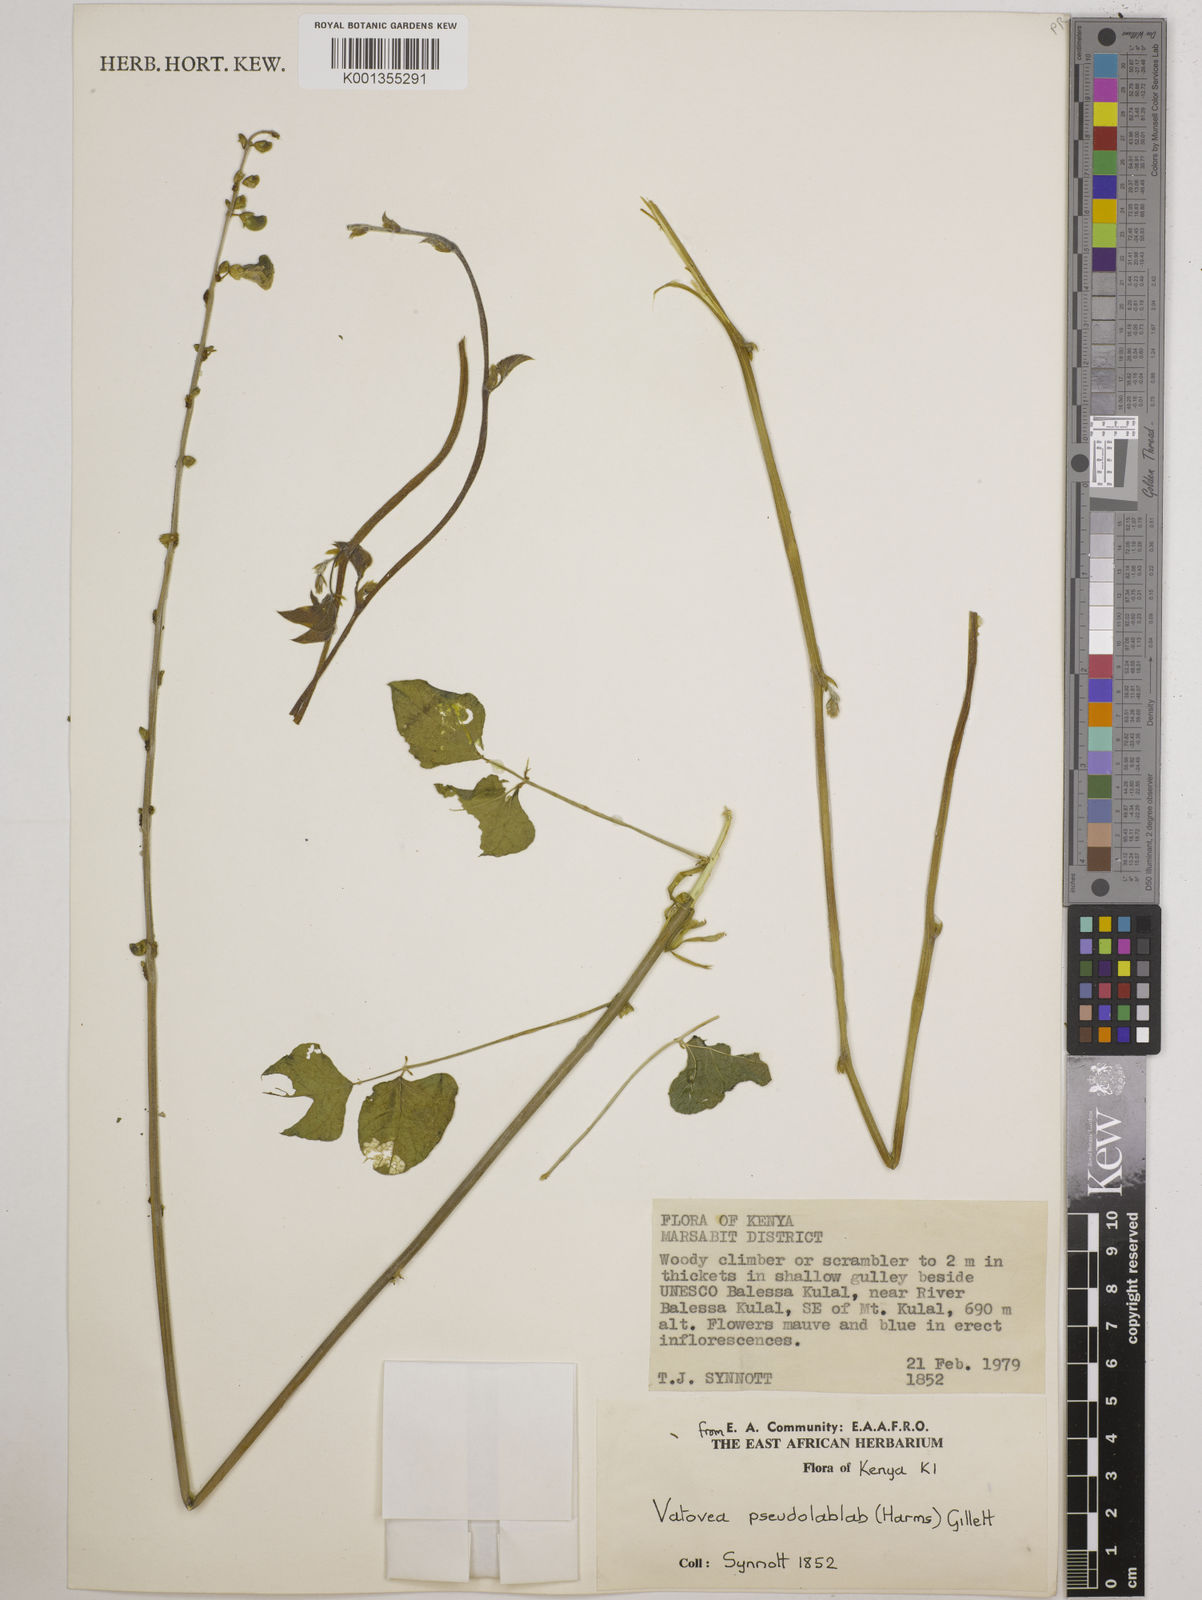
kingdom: Plantae
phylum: Tracheophyta
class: Magnoliopsida
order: Fabales
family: Fabaceae
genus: Vatovaea
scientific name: Vatovaea pseudolablab
